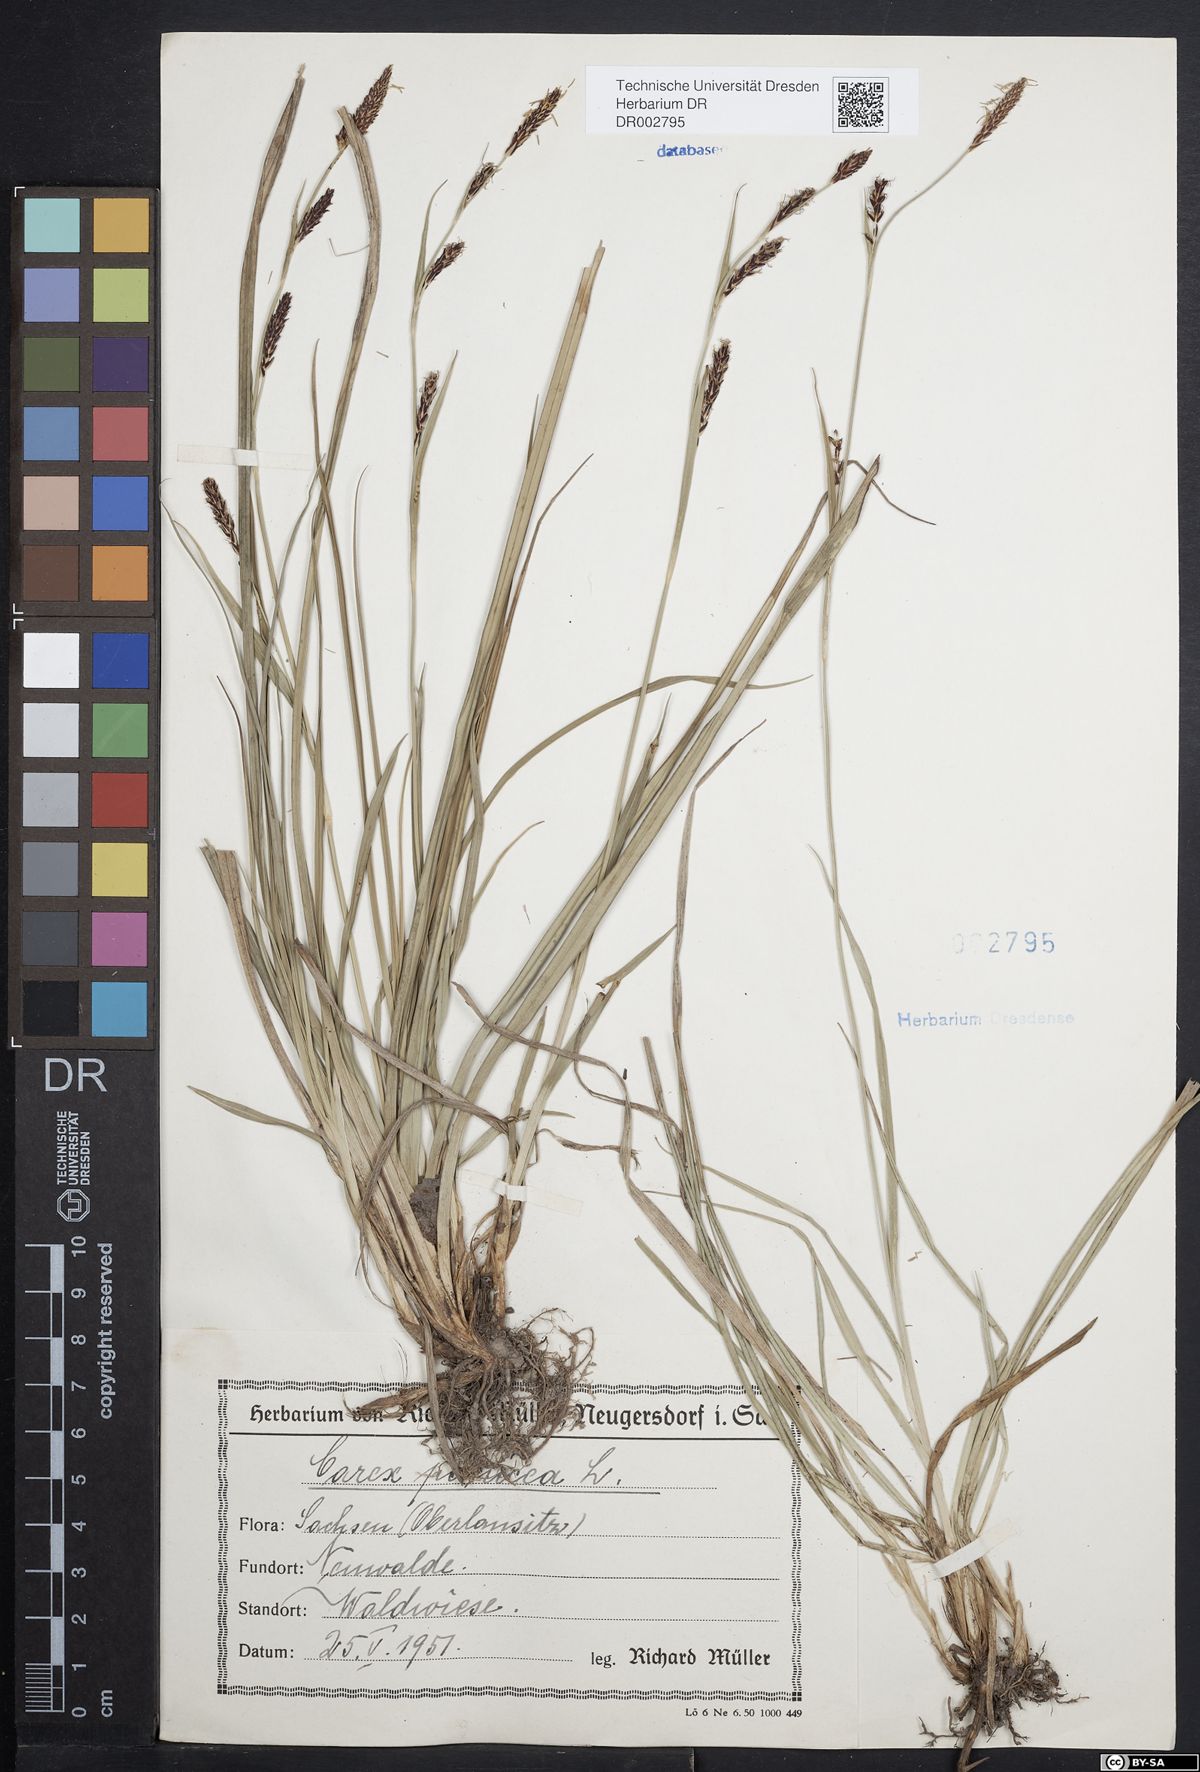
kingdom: Plantae
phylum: Tracheophyta
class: Liliopsida
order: Poales
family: Cyperaceae
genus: Carex
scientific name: Carex panicea
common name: Carnation sedge
